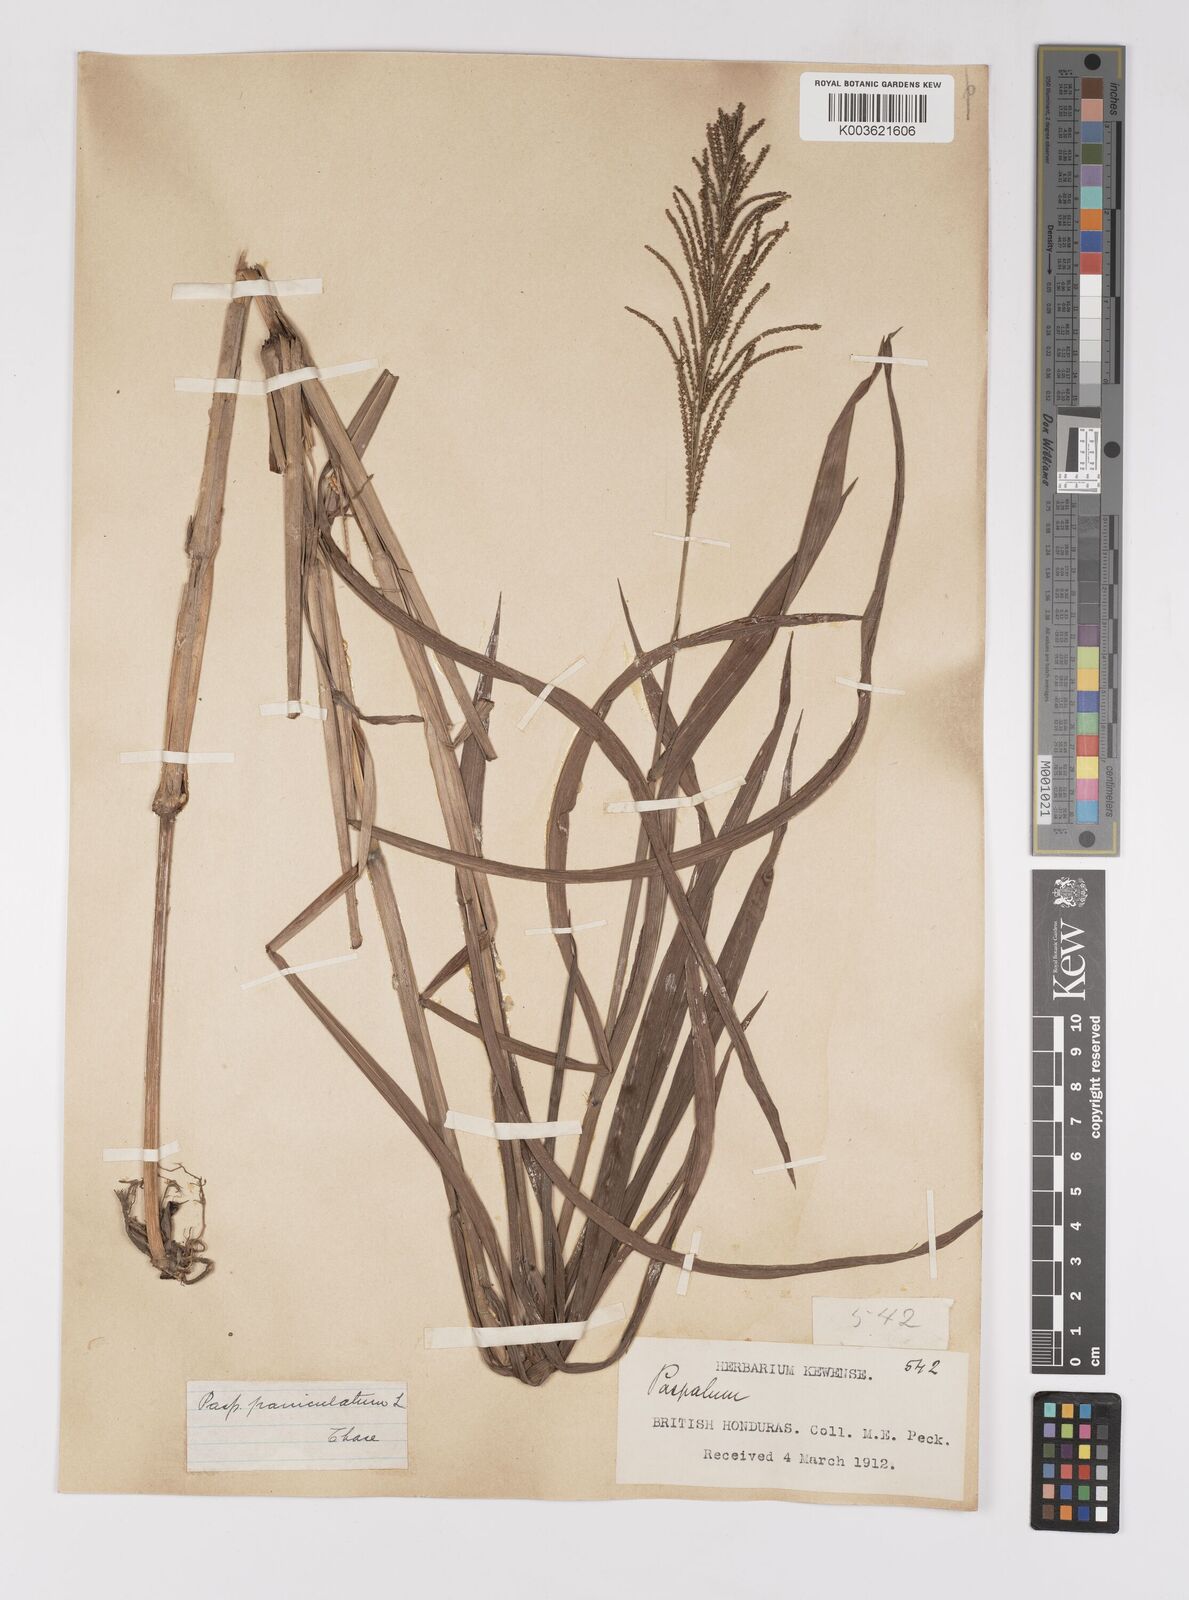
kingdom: Plantae
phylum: Tracheophyta
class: Liliopsida
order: Poales
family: Poaceae
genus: Paspalum
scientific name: Paspalum paniculatum
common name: Arrocillo
